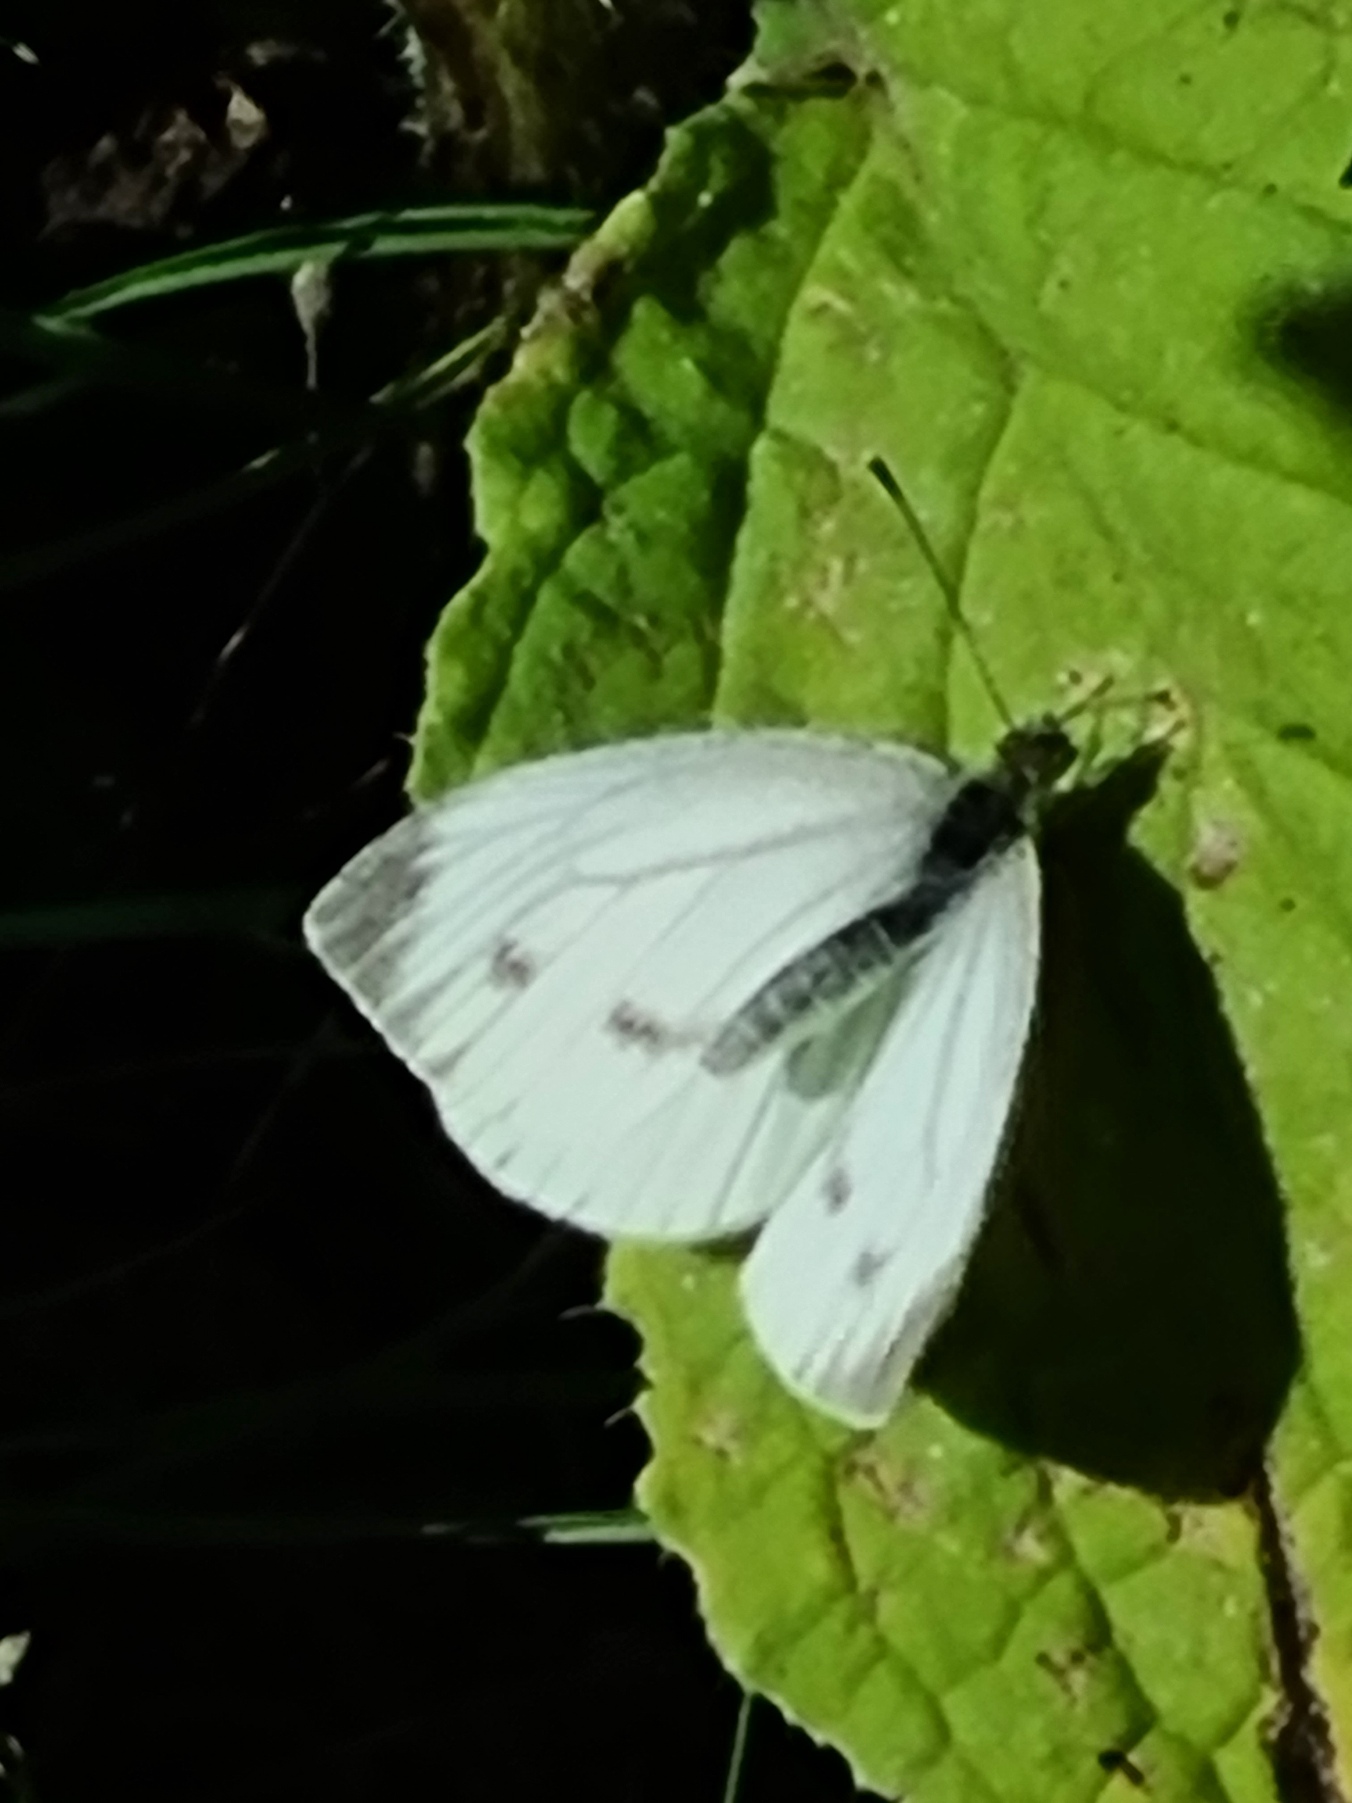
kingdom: Animalia
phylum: Arthropoda
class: Insecta
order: Lepidoptera
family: Pieridae
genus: Pieris
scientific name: Pieris napi
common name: Grønåret kålsommerfugl
